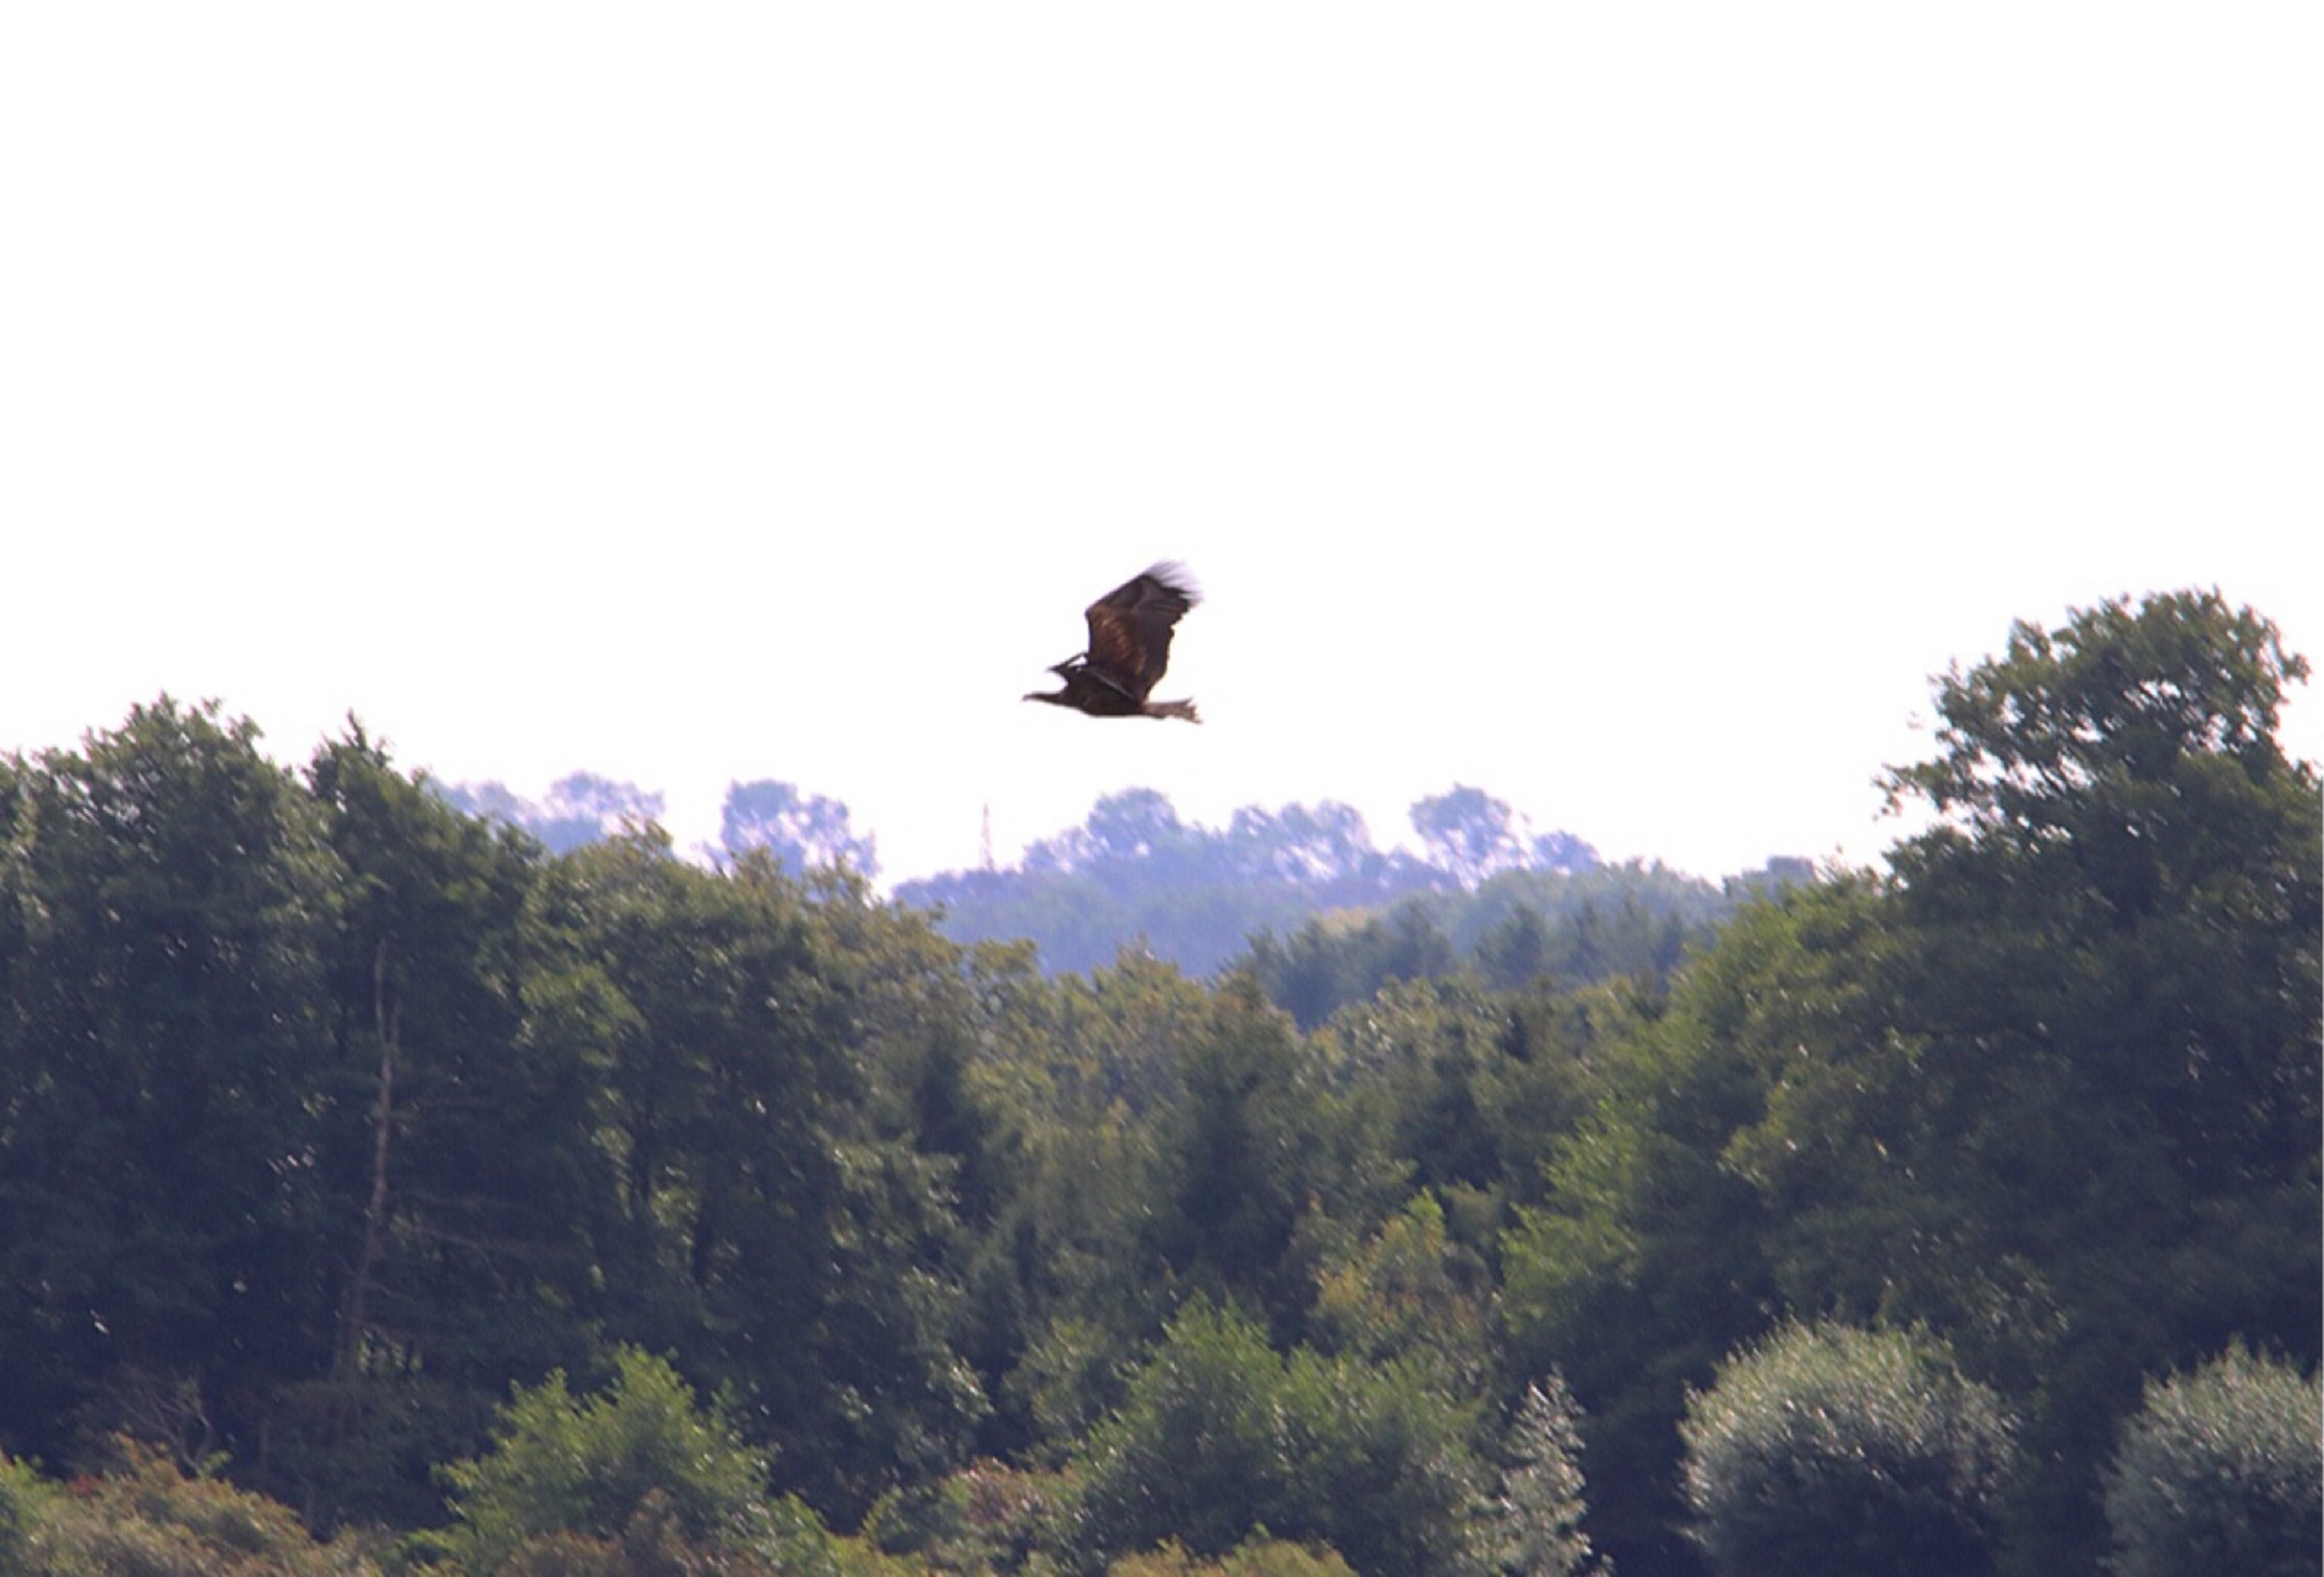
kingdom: Animalia
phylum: Chordata
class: Aves
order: Accipitriformes
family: Accipitridae
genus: Haliaeetus
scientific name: Haliaeetus albicilla
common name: Havørn
